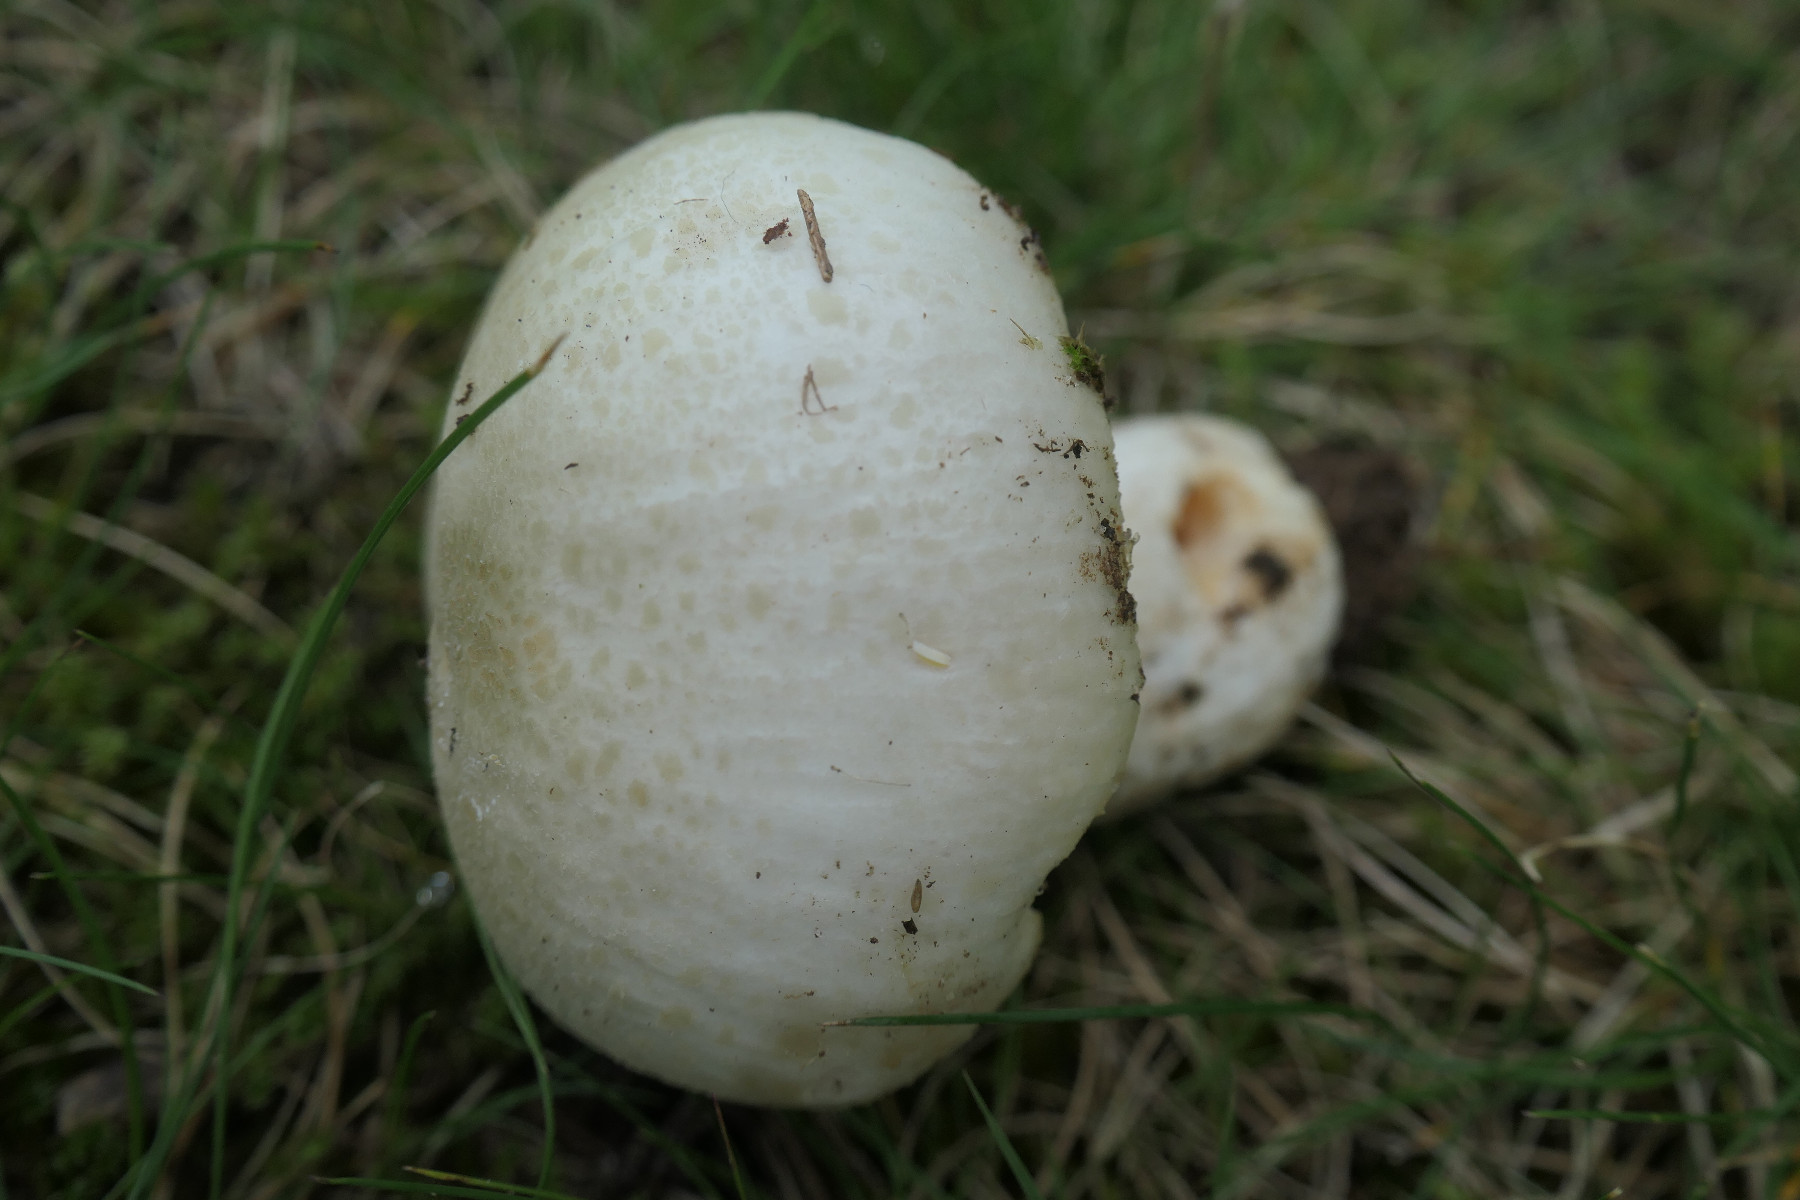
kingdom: Fungi
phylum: Basidiomycota
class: Agaricomycetes
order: Russulales
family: Russulaceae
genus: Russula
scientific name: Russula virescens
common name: spanskgrøn skørhat
